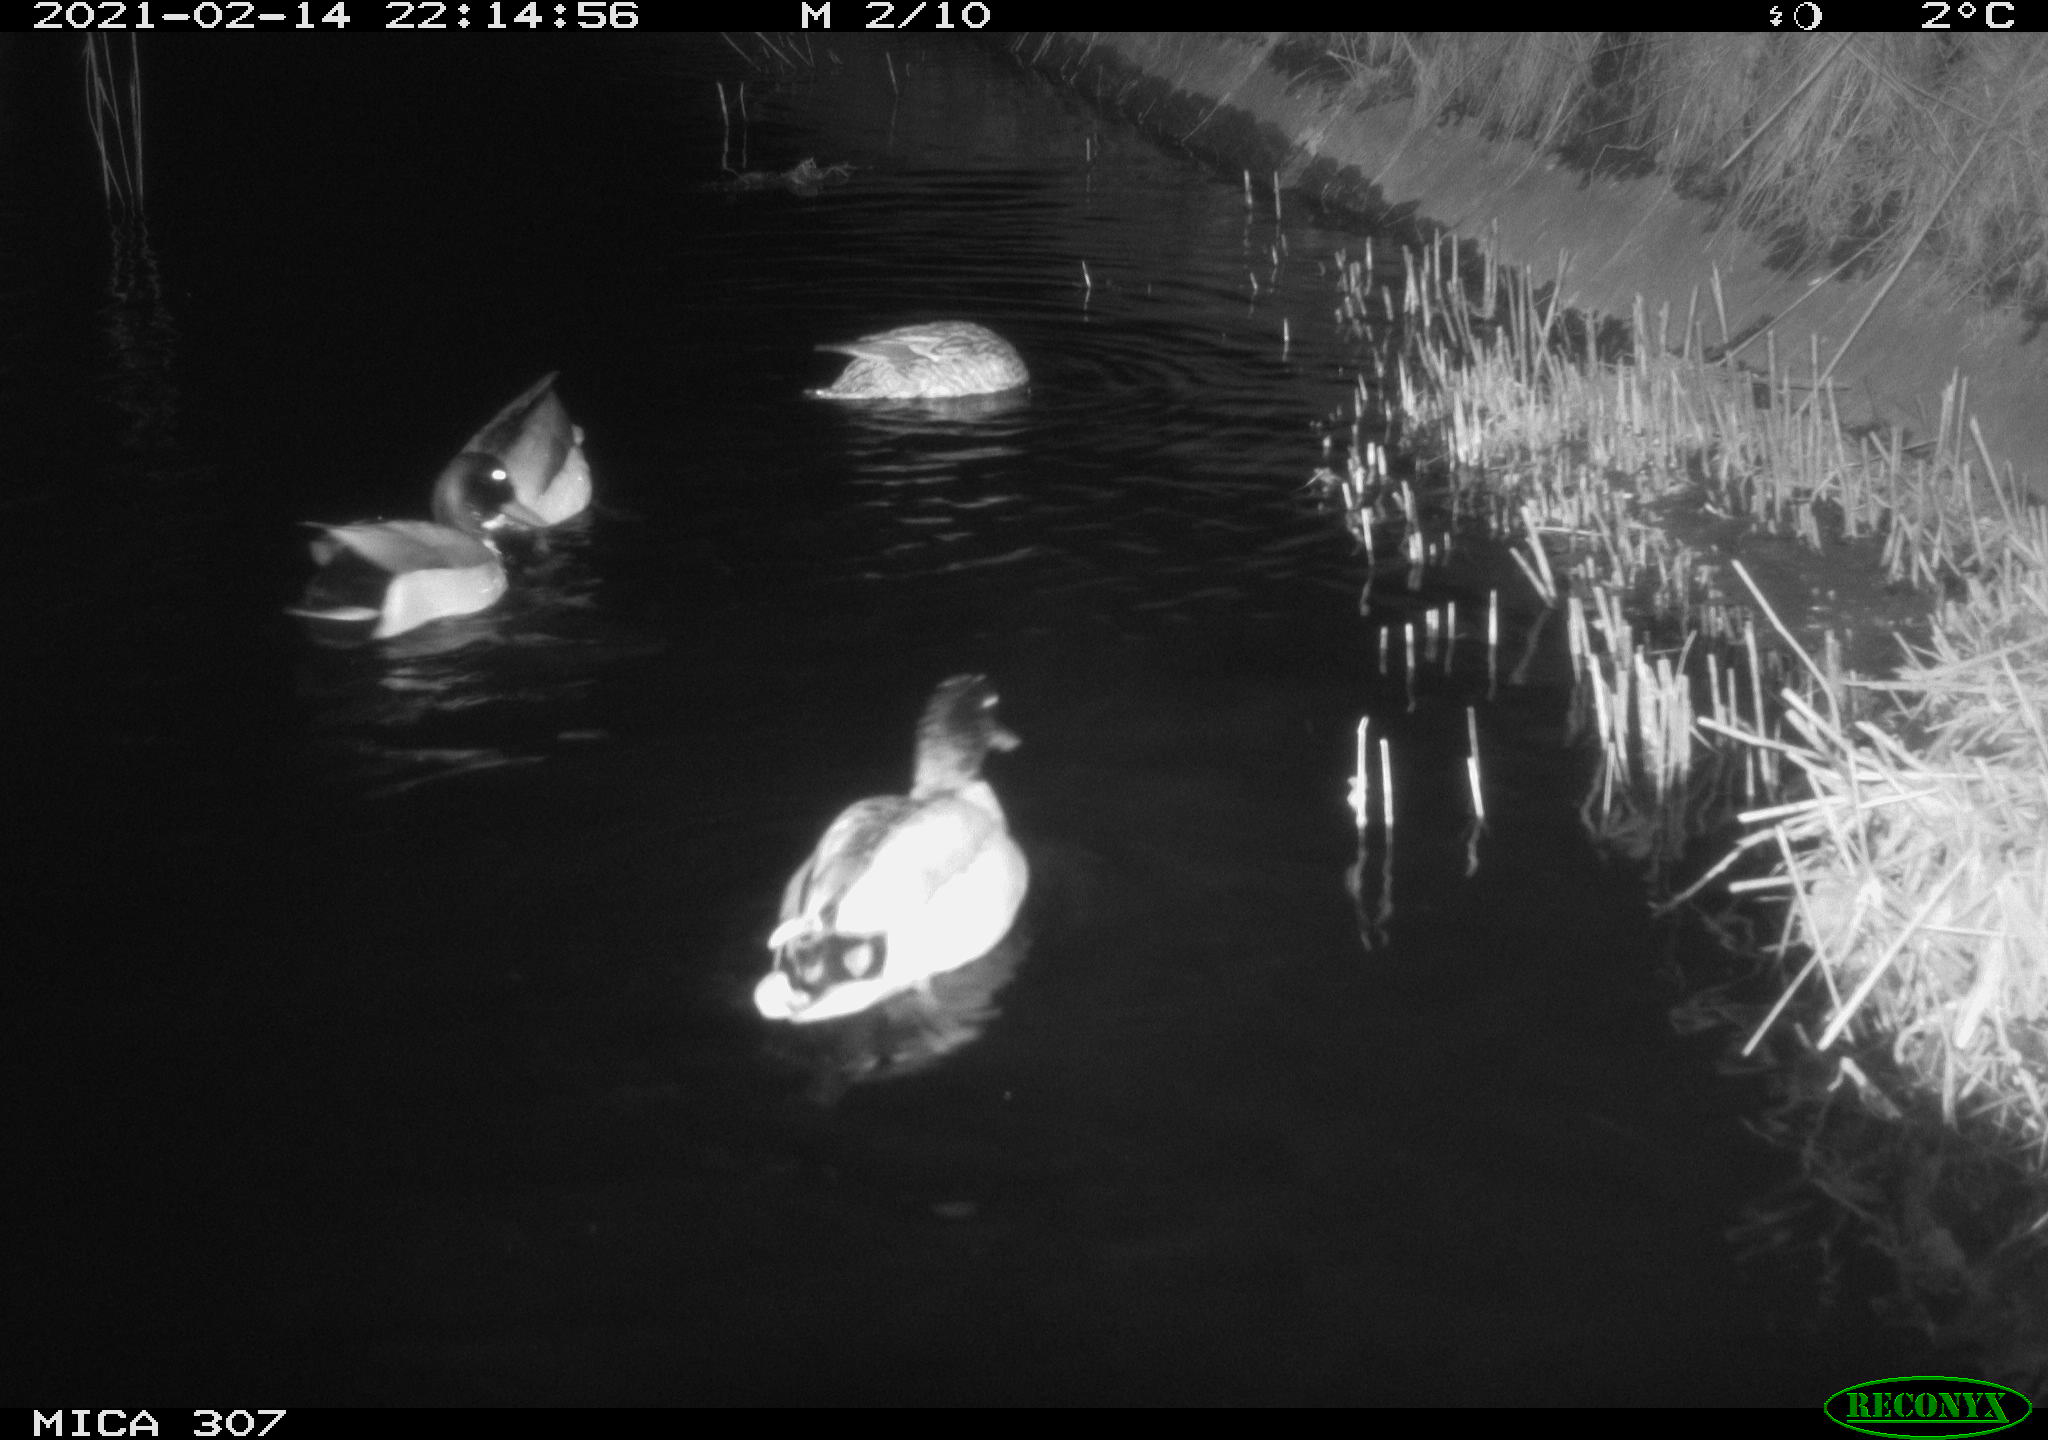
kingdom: Animalia
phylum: Chordata
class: Aves
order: Anseriformes
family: Anatidae
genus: Anas
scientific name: Anas platyrhynchos
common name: Mallard
